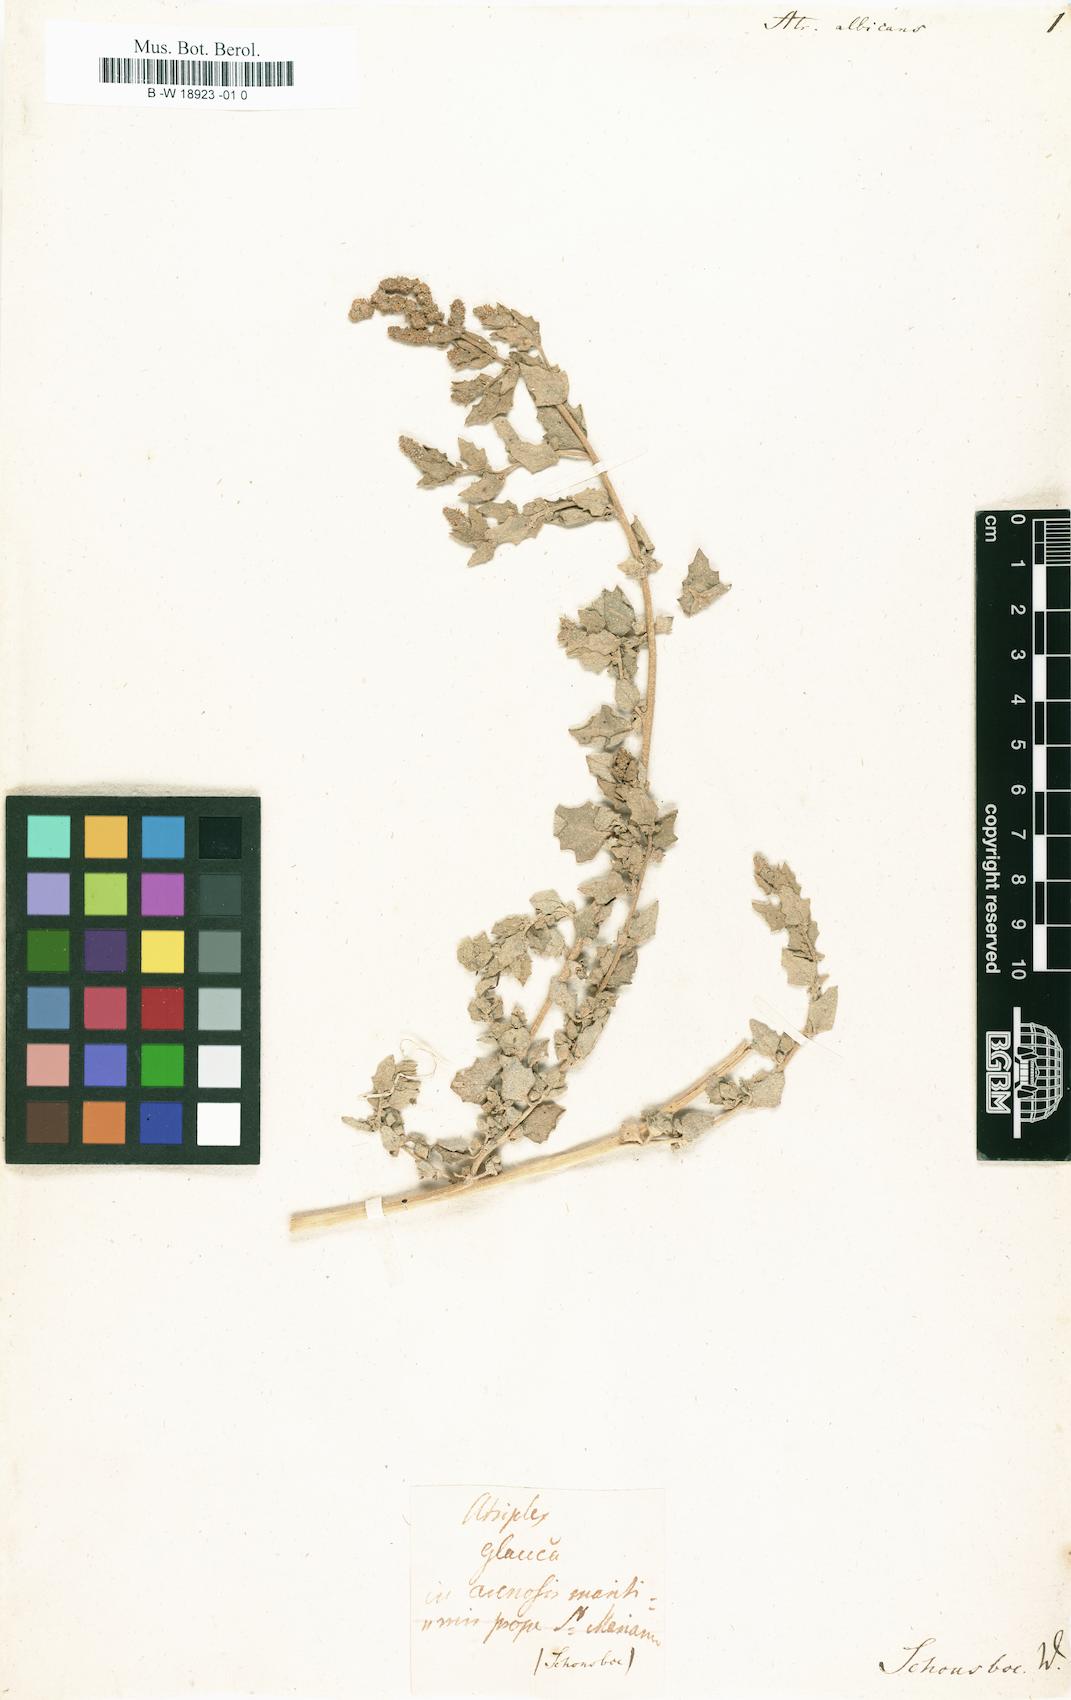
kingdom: Plantae
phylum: Tracheophyta
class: Magnoliopsida
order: Caryophyllales
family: Amaranthaceae
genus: Atriplex
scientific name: Atriplex laciniata
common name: Frosted orache
